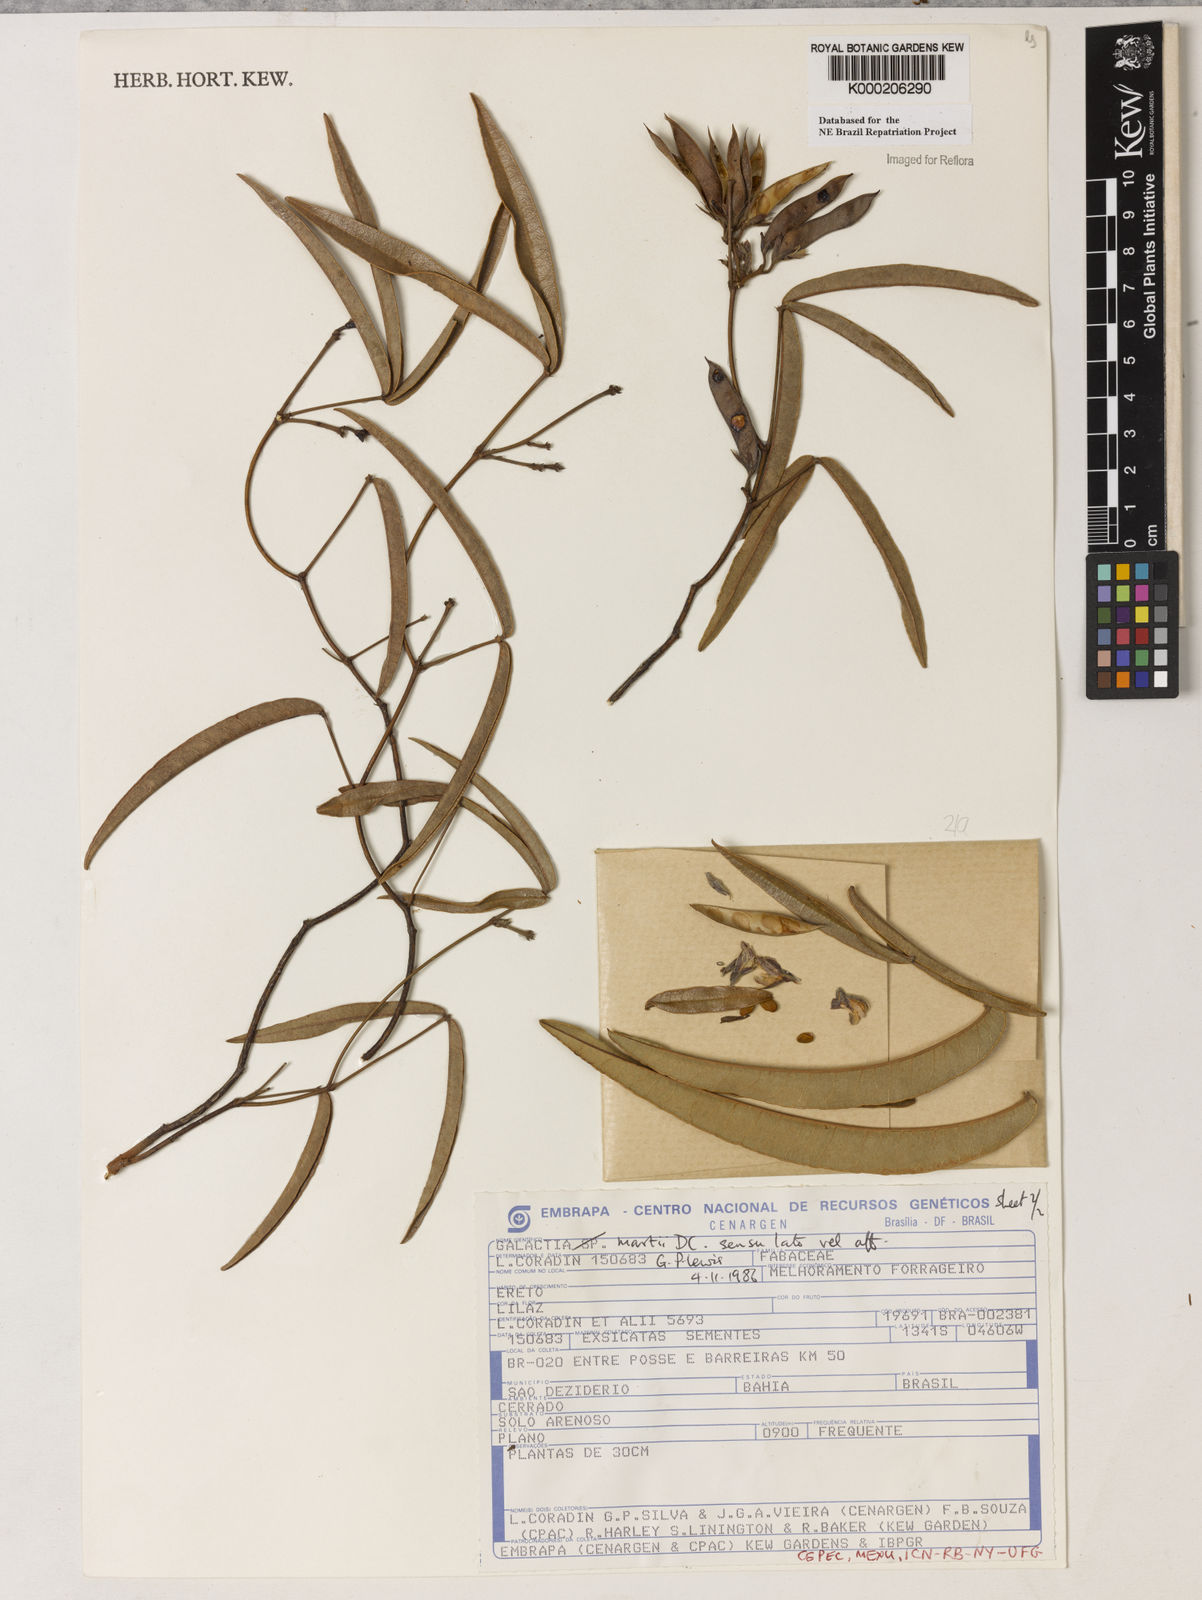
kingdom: Plantae
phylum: Tracheophyta
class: Magnoliopsida
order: Fabales
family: Fabaceae
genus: Betencourtia
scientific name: Betencourtia martii
